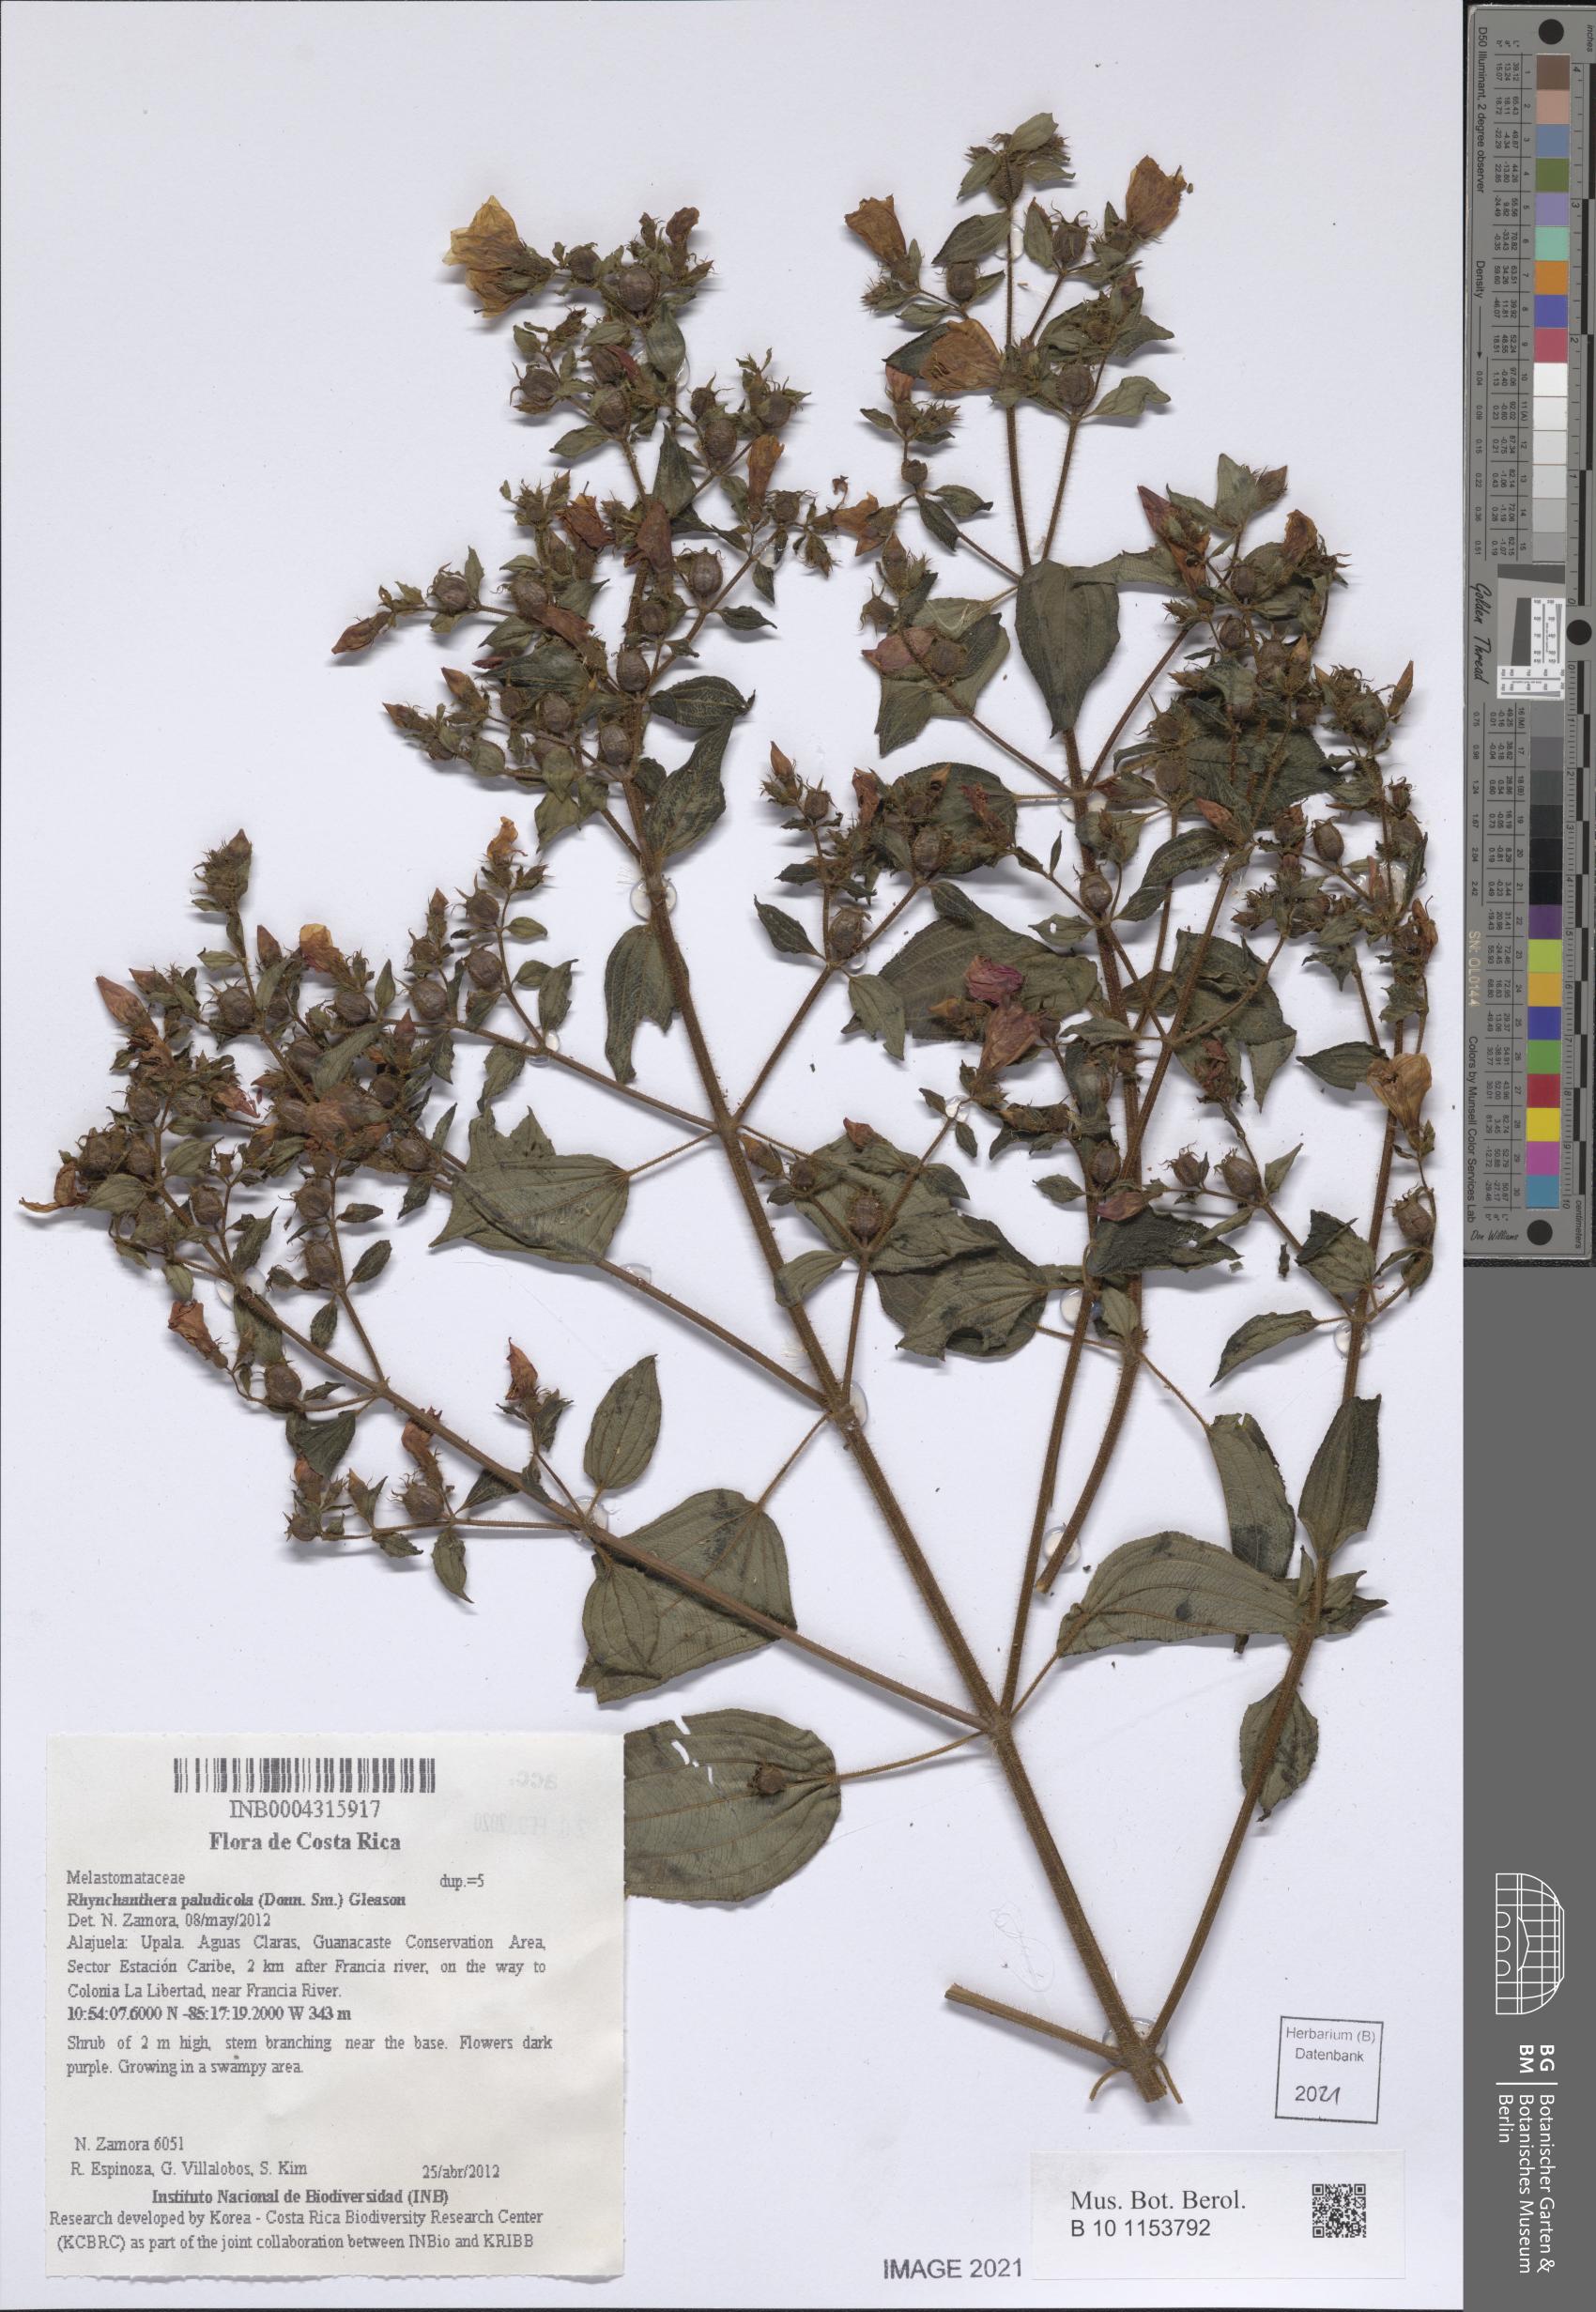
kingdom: Plantae
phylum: Tracheophyta
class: Magnoliopsida
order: Myrtales
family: Melastomataceae
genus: Rhynchanthera
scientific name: Rhynchanthera paludicola
